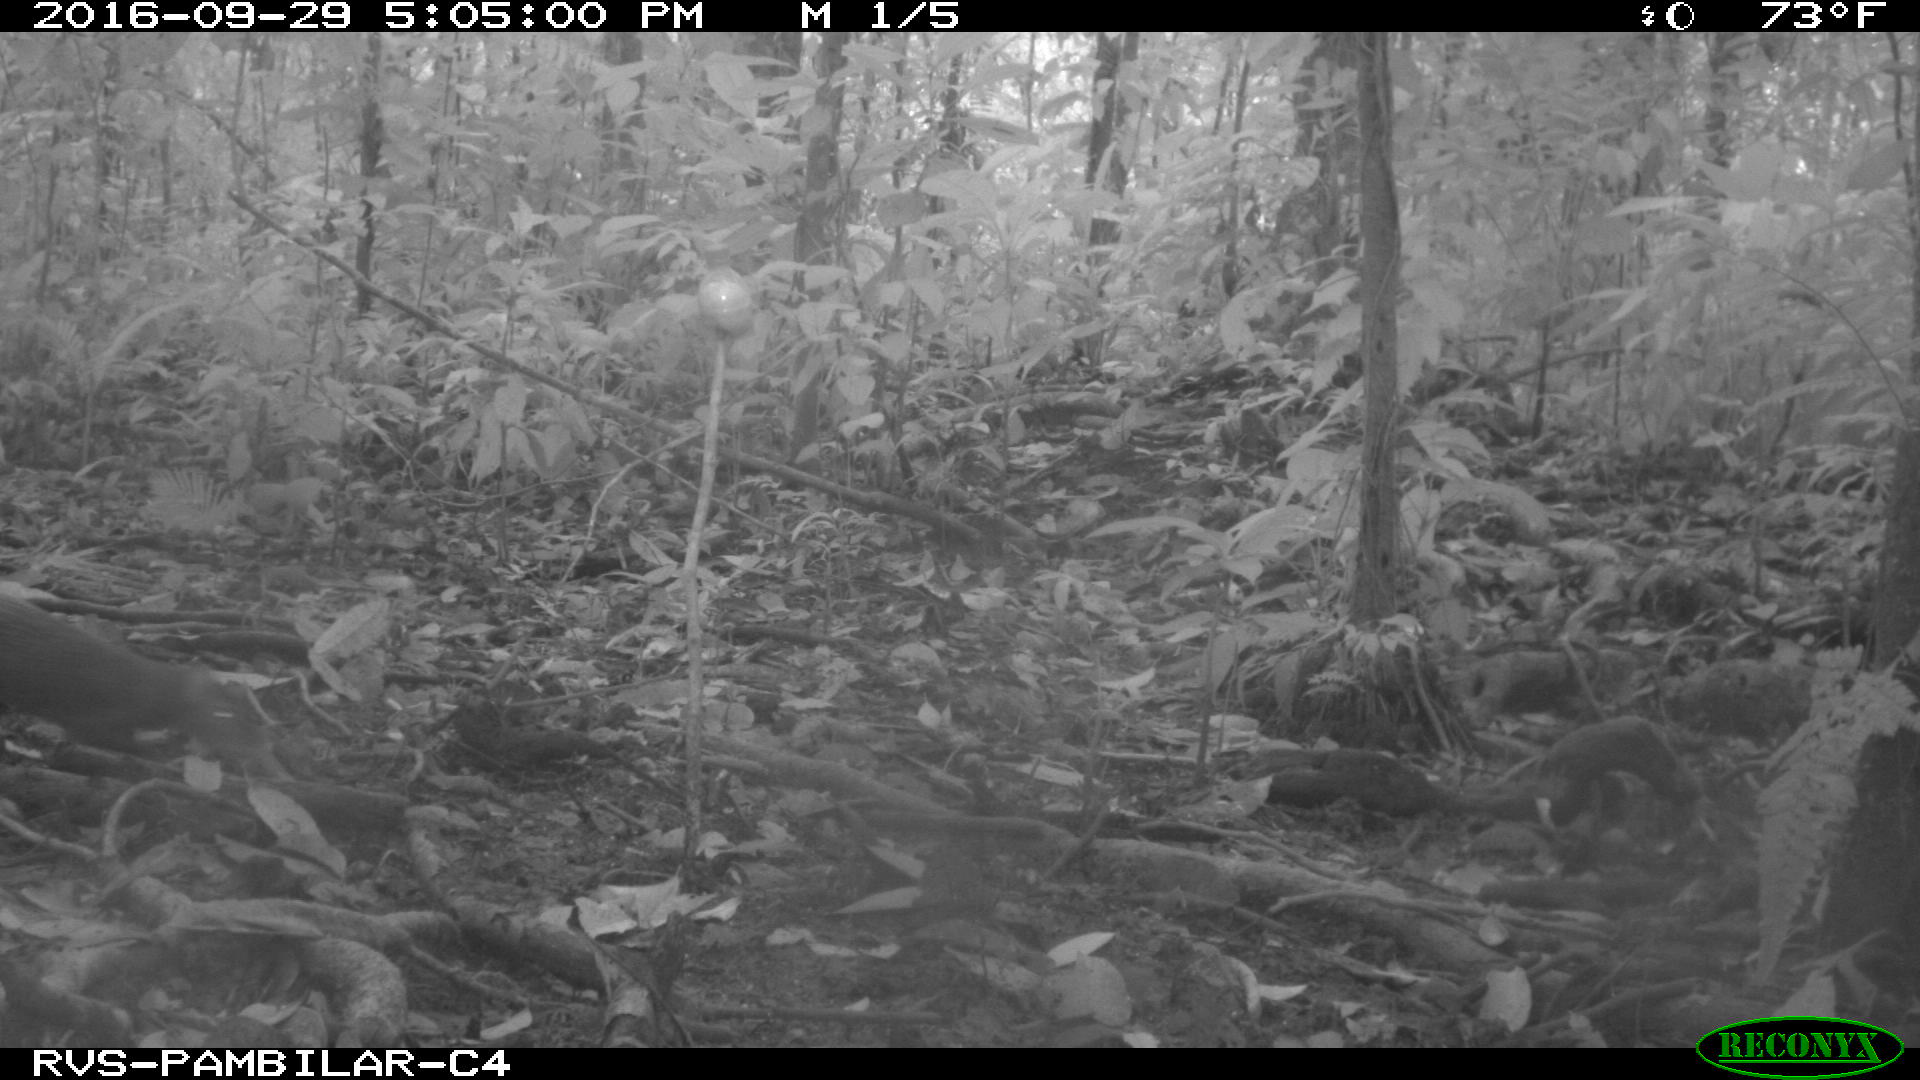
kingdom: Animalia
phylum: Chordata
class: Mammalia
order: Rodentia
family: Cuniculidae
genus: Cuniculus
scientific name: Cuniculus paca
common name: Lowland paca
